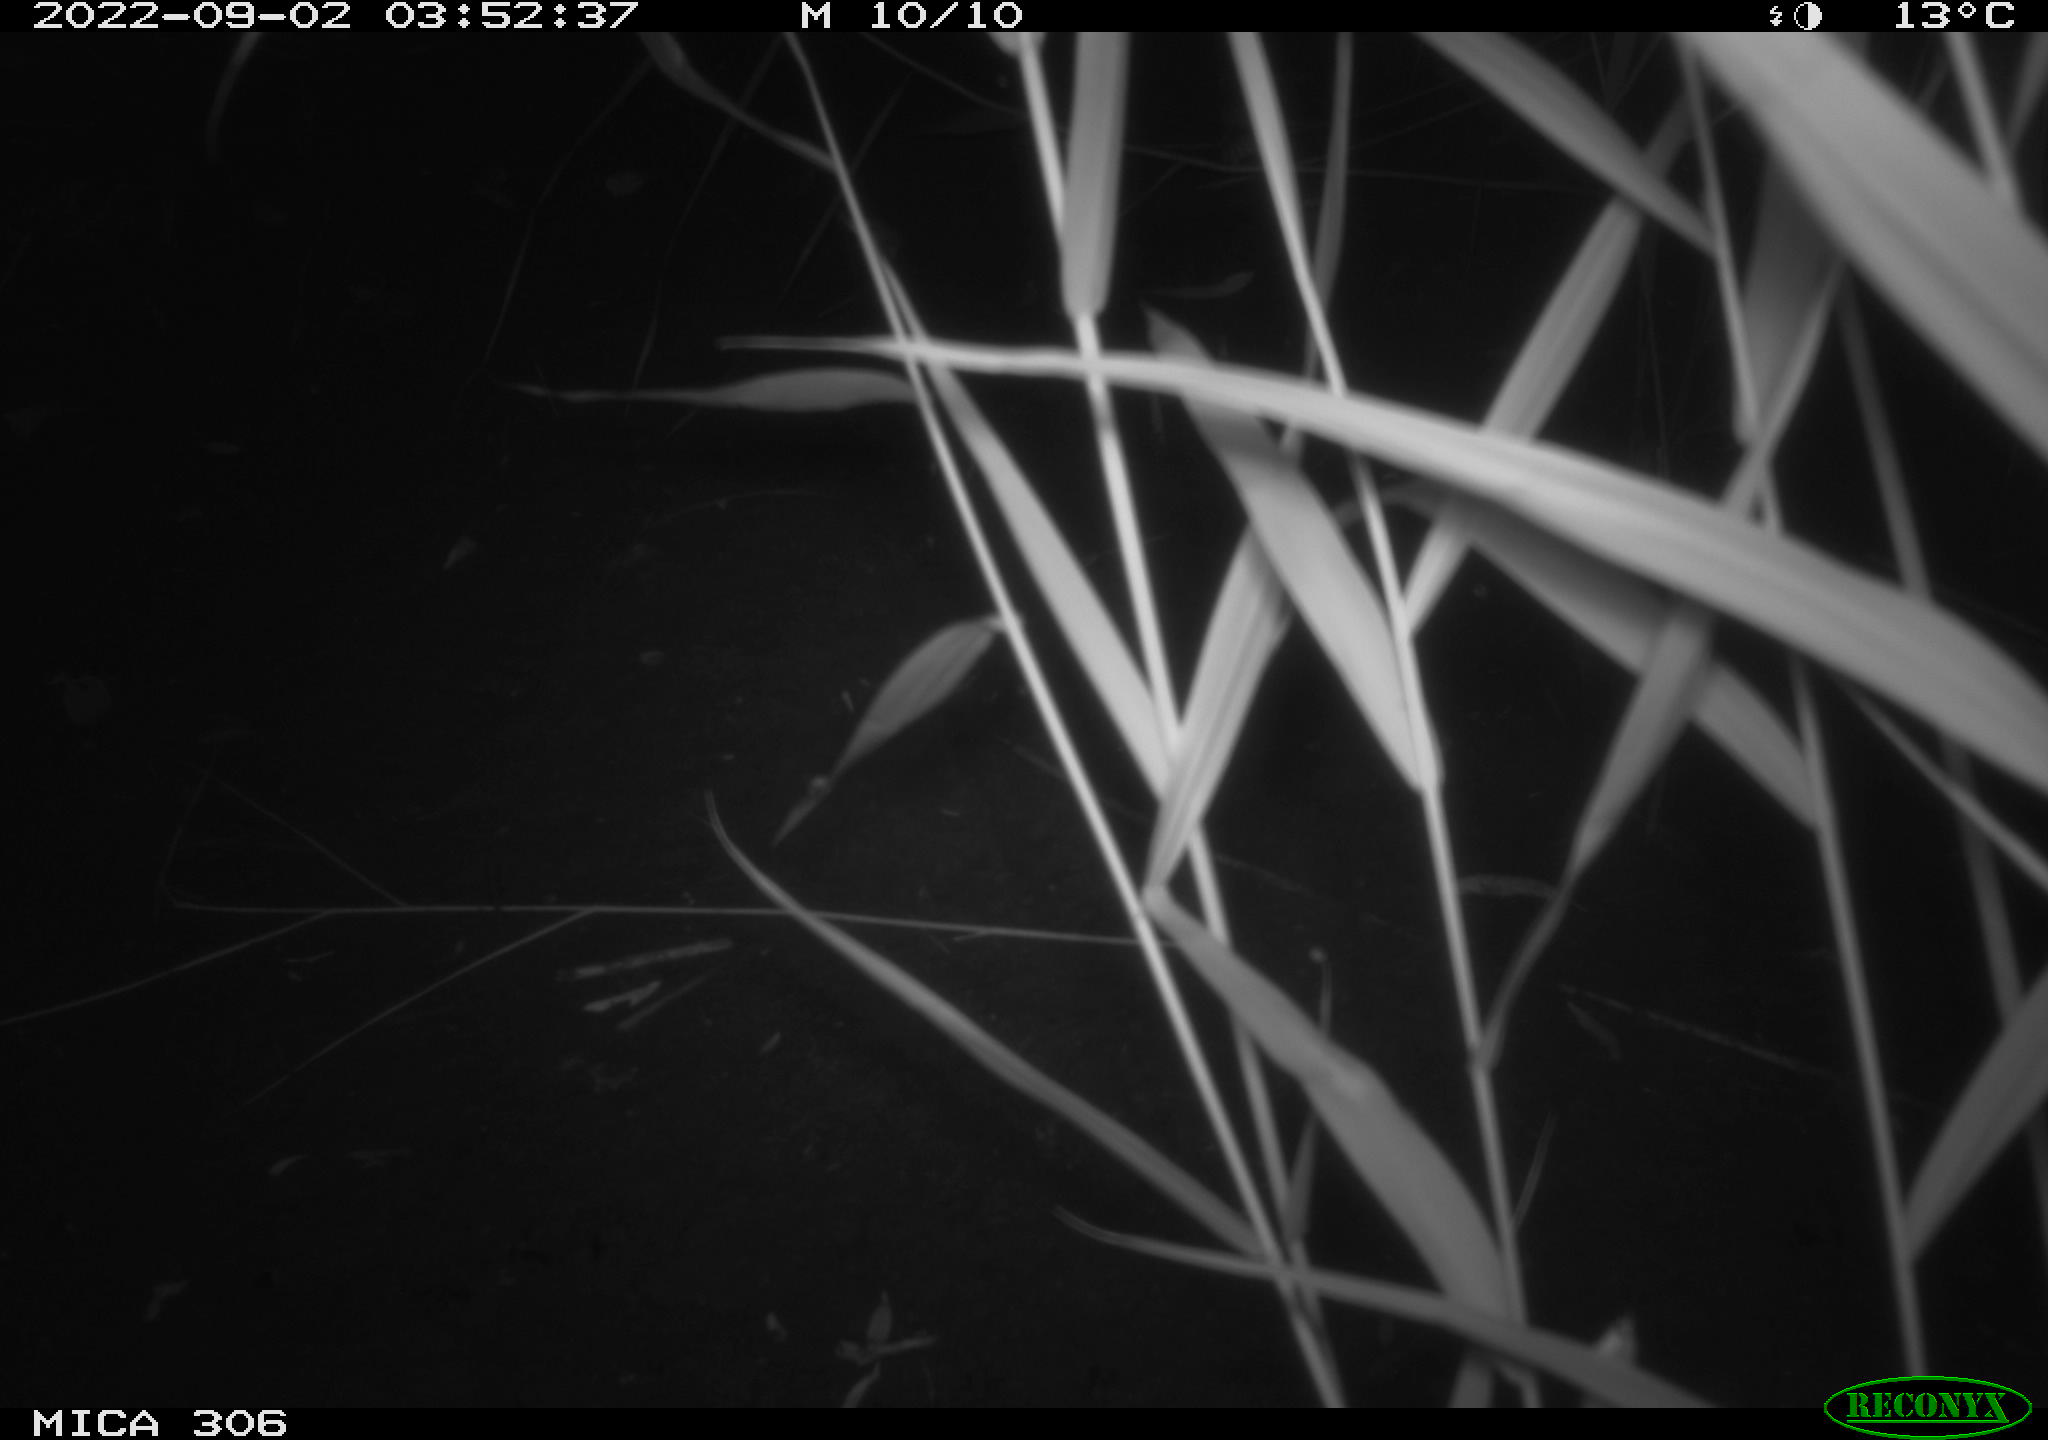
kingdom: Animalia
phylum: Chordata
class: Mammalia
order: Rodentia
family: Muridae
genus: Rattus
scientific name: Rattus norvegicus
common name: Brown rat
